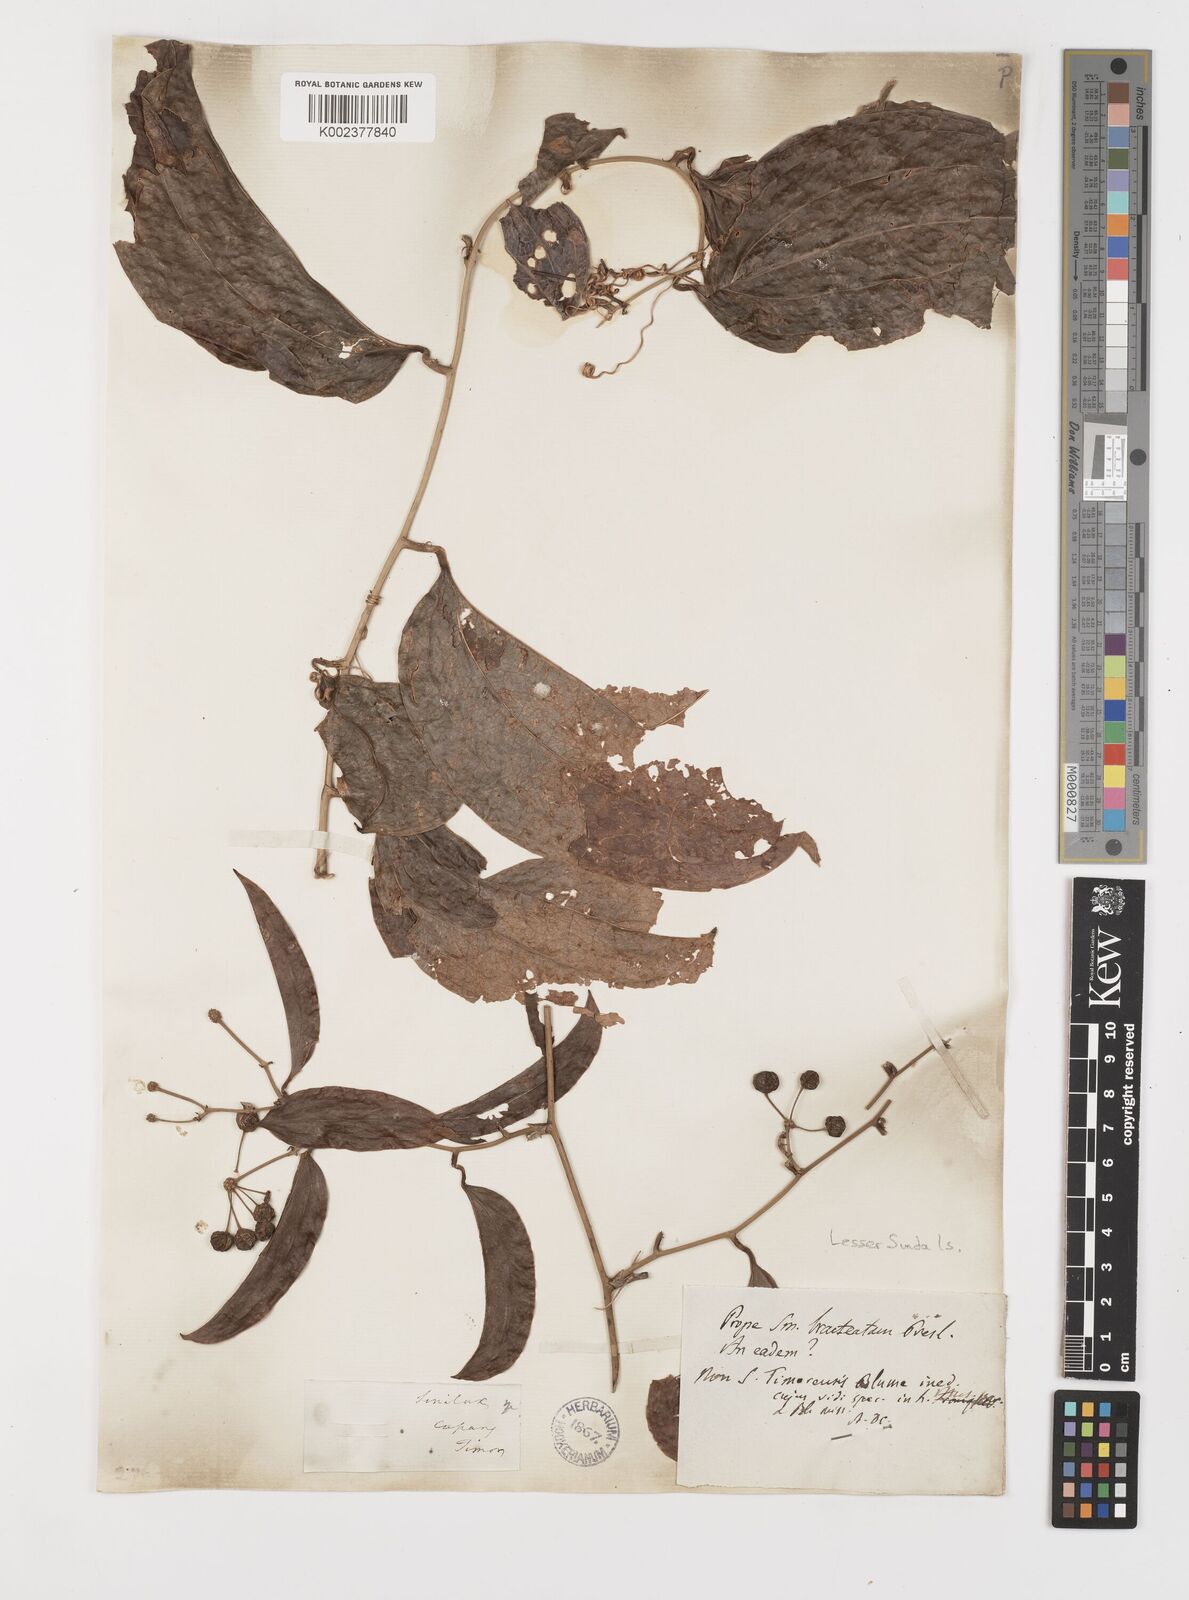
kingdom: Plantae
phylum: Tracheophyta
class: Liliopsida
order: Liliales
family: Smilacaceae
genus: Smilax
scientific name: Smilax
